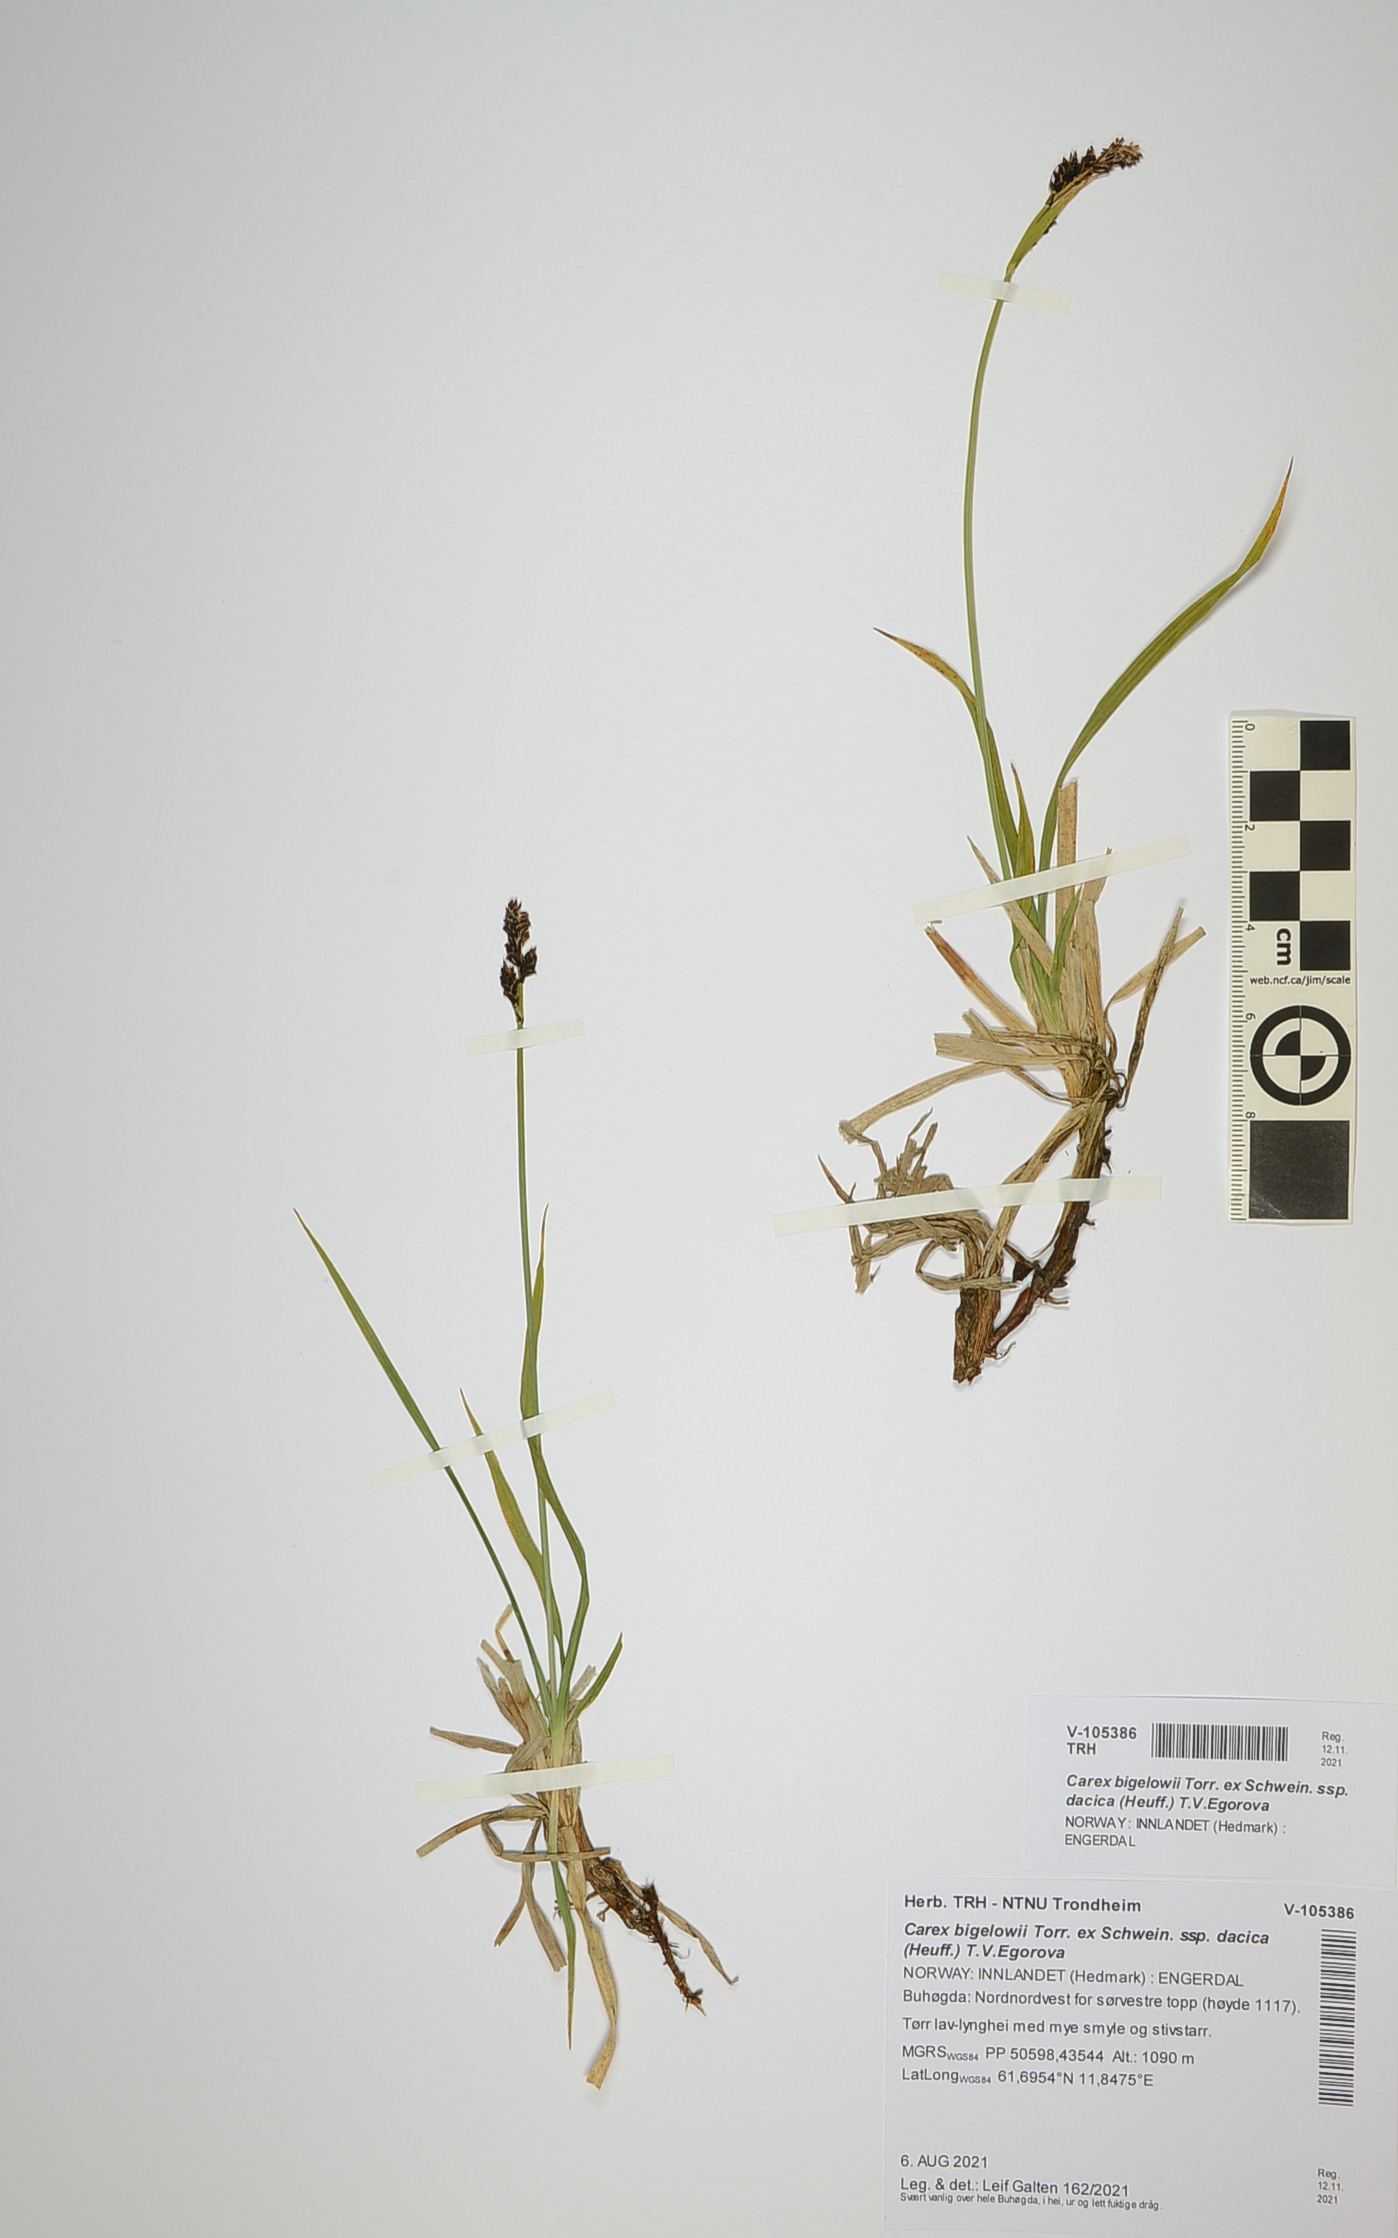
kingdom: Plantae
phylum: Tracheophyta
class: Liliopsida
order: Poales
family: Cyperaceae
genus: Carex
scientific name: Carex dacica
